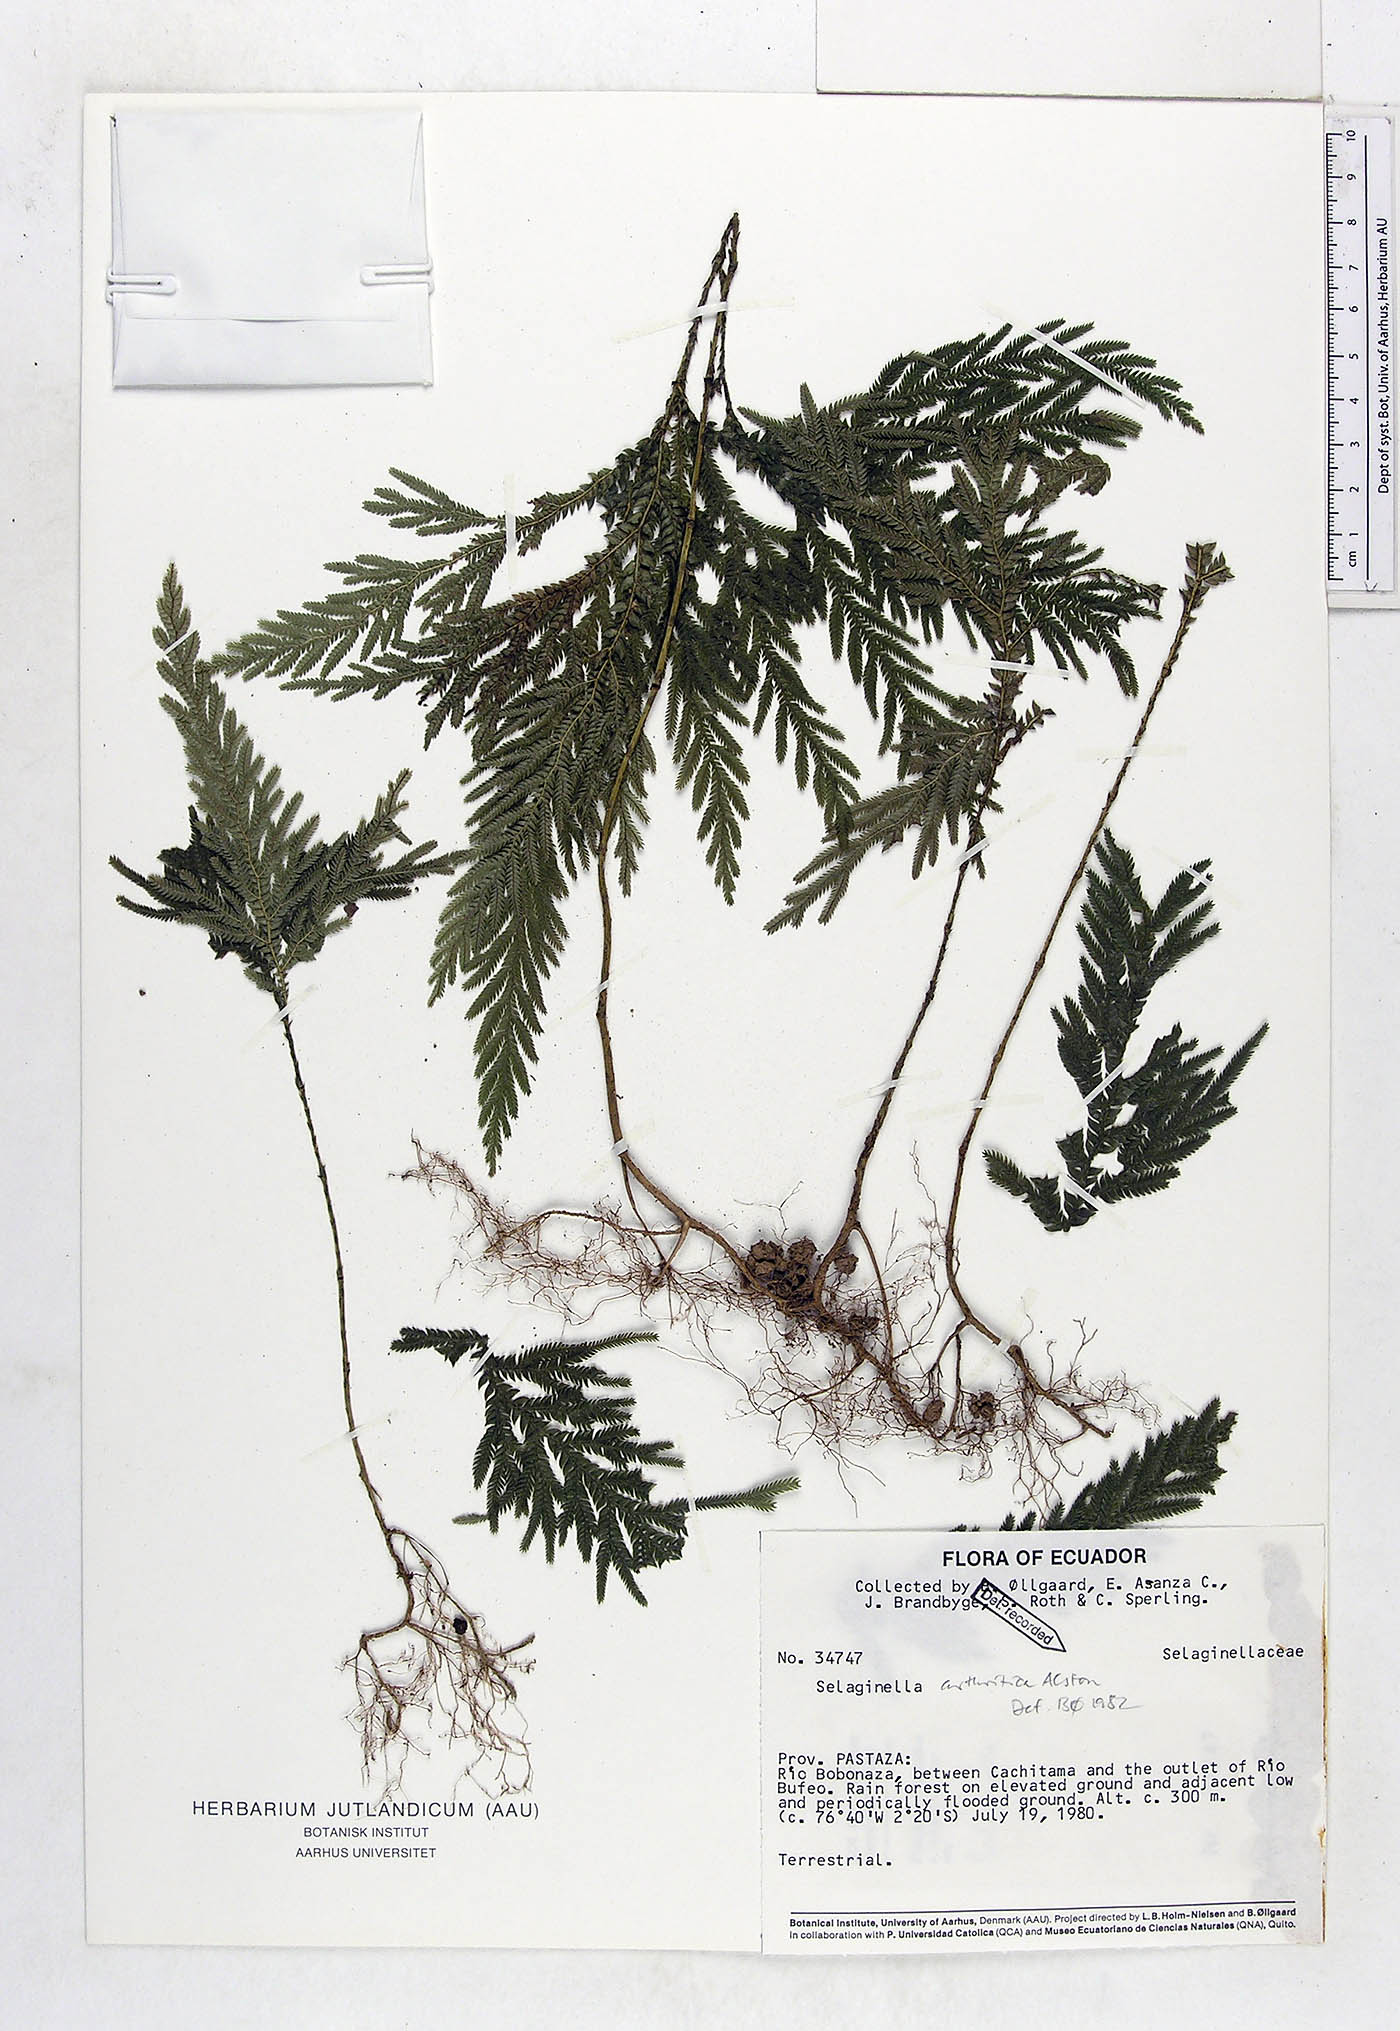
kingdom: Plantae
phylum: Tracheophyta
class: Lycopodiopsida
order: Selaginellales
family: Selaginellaceae
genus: Selaginella
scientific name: Selaginella arthritica
